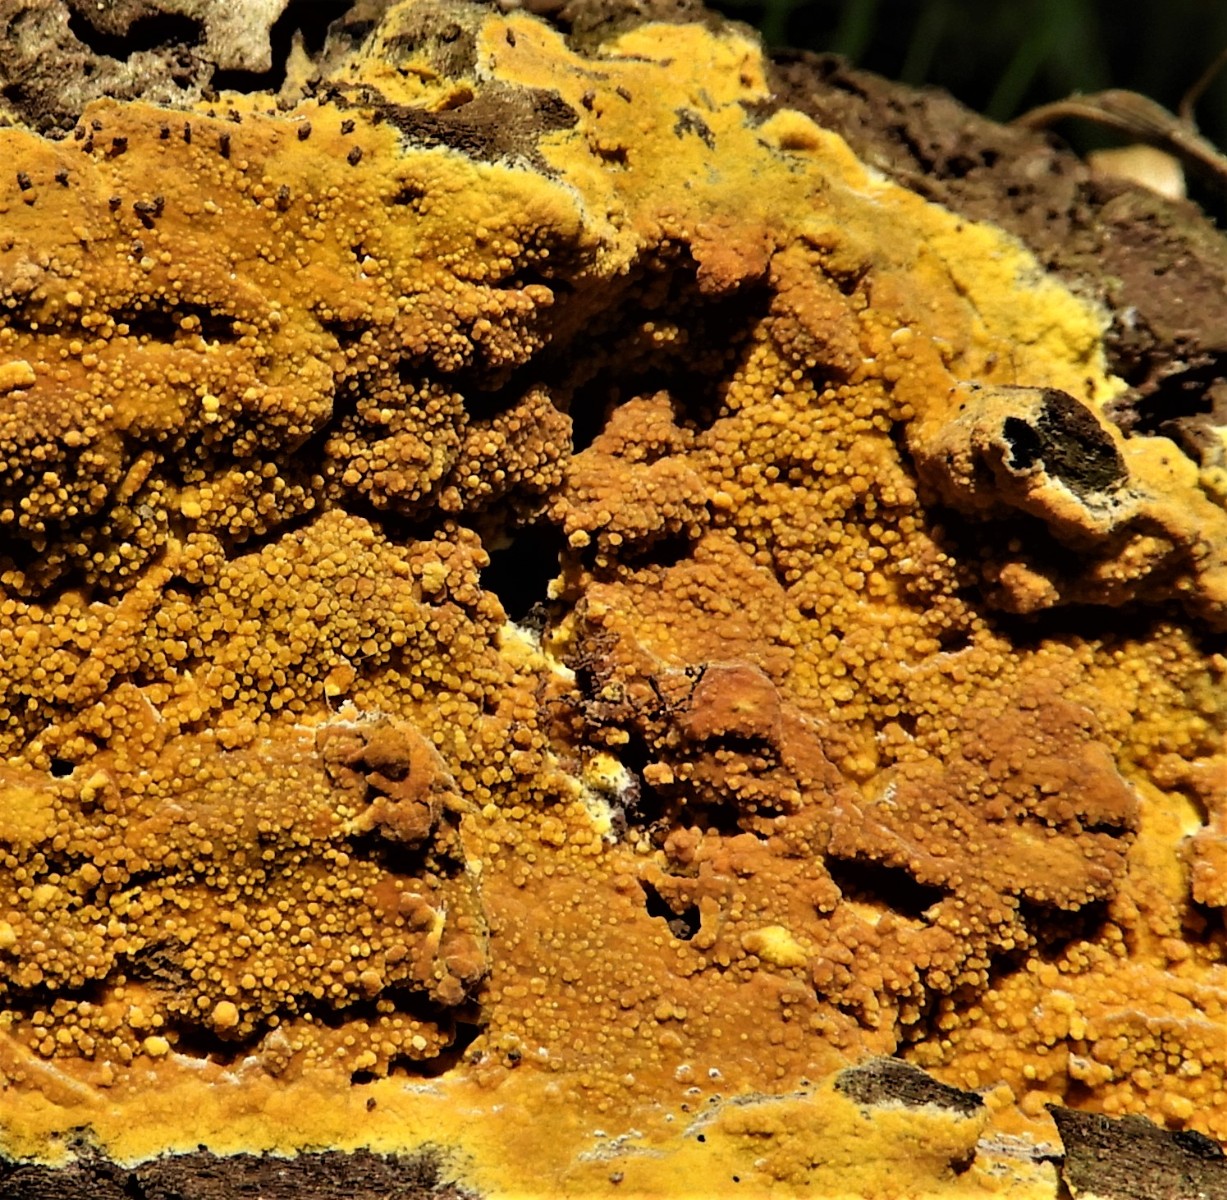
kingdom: Fungi
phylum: Basidiomycota
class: Agaricomycetes
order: Polyporales
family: Meruliaceae
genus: Phlebiodontia
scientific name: Phlebiodontia subochracea
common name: svovl-åresvamp
